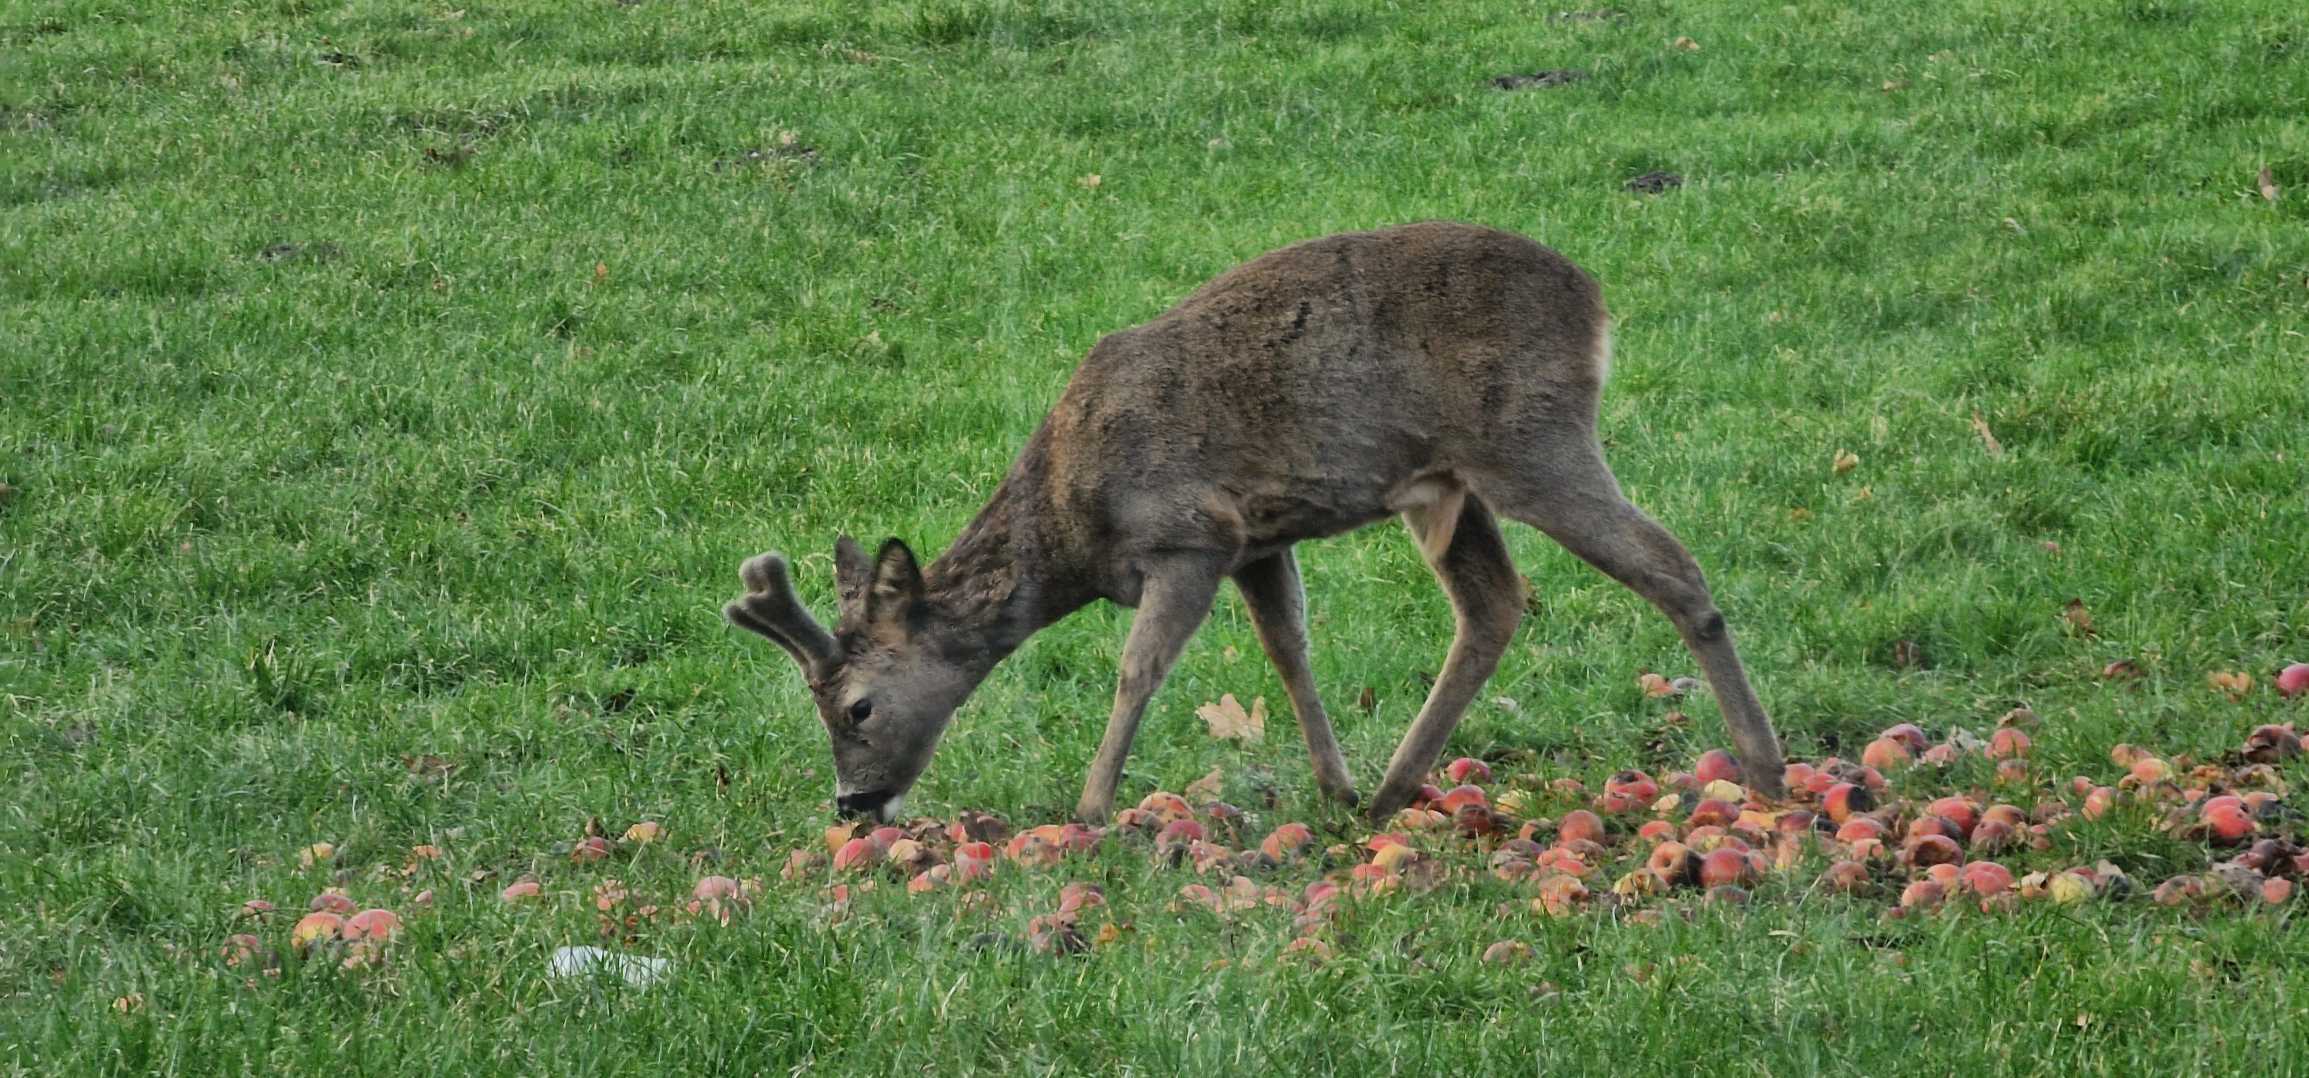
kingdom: Animalia
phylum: Chordata
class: Mammalia
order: Artiodactyla
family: Cervidae
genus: Capreolus
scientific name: Capreolus capreolus
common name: Rådyr
